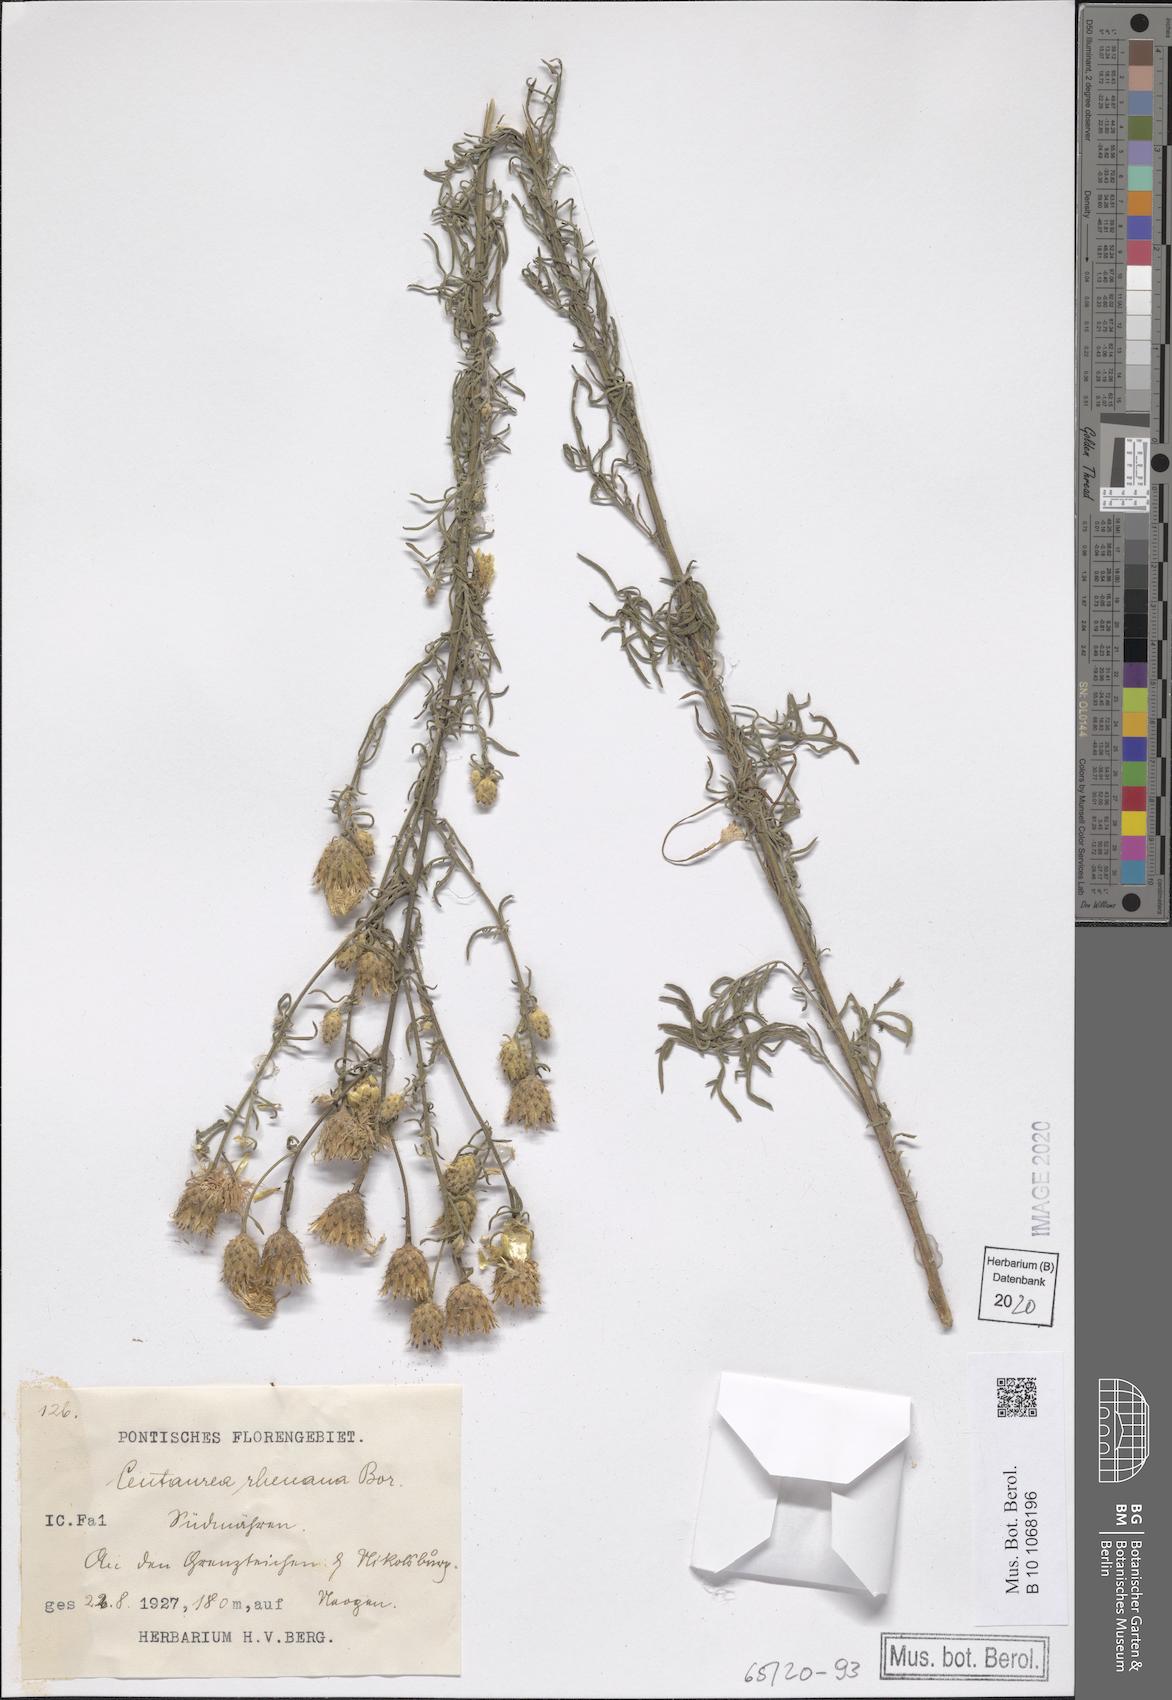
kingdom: Plantae
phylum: Tracheophyta
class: Magnoliopsida
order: Asterales
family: Asteraceae
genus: Centaurea
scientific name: Centaurea stoebe
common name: Spotted knapweed
